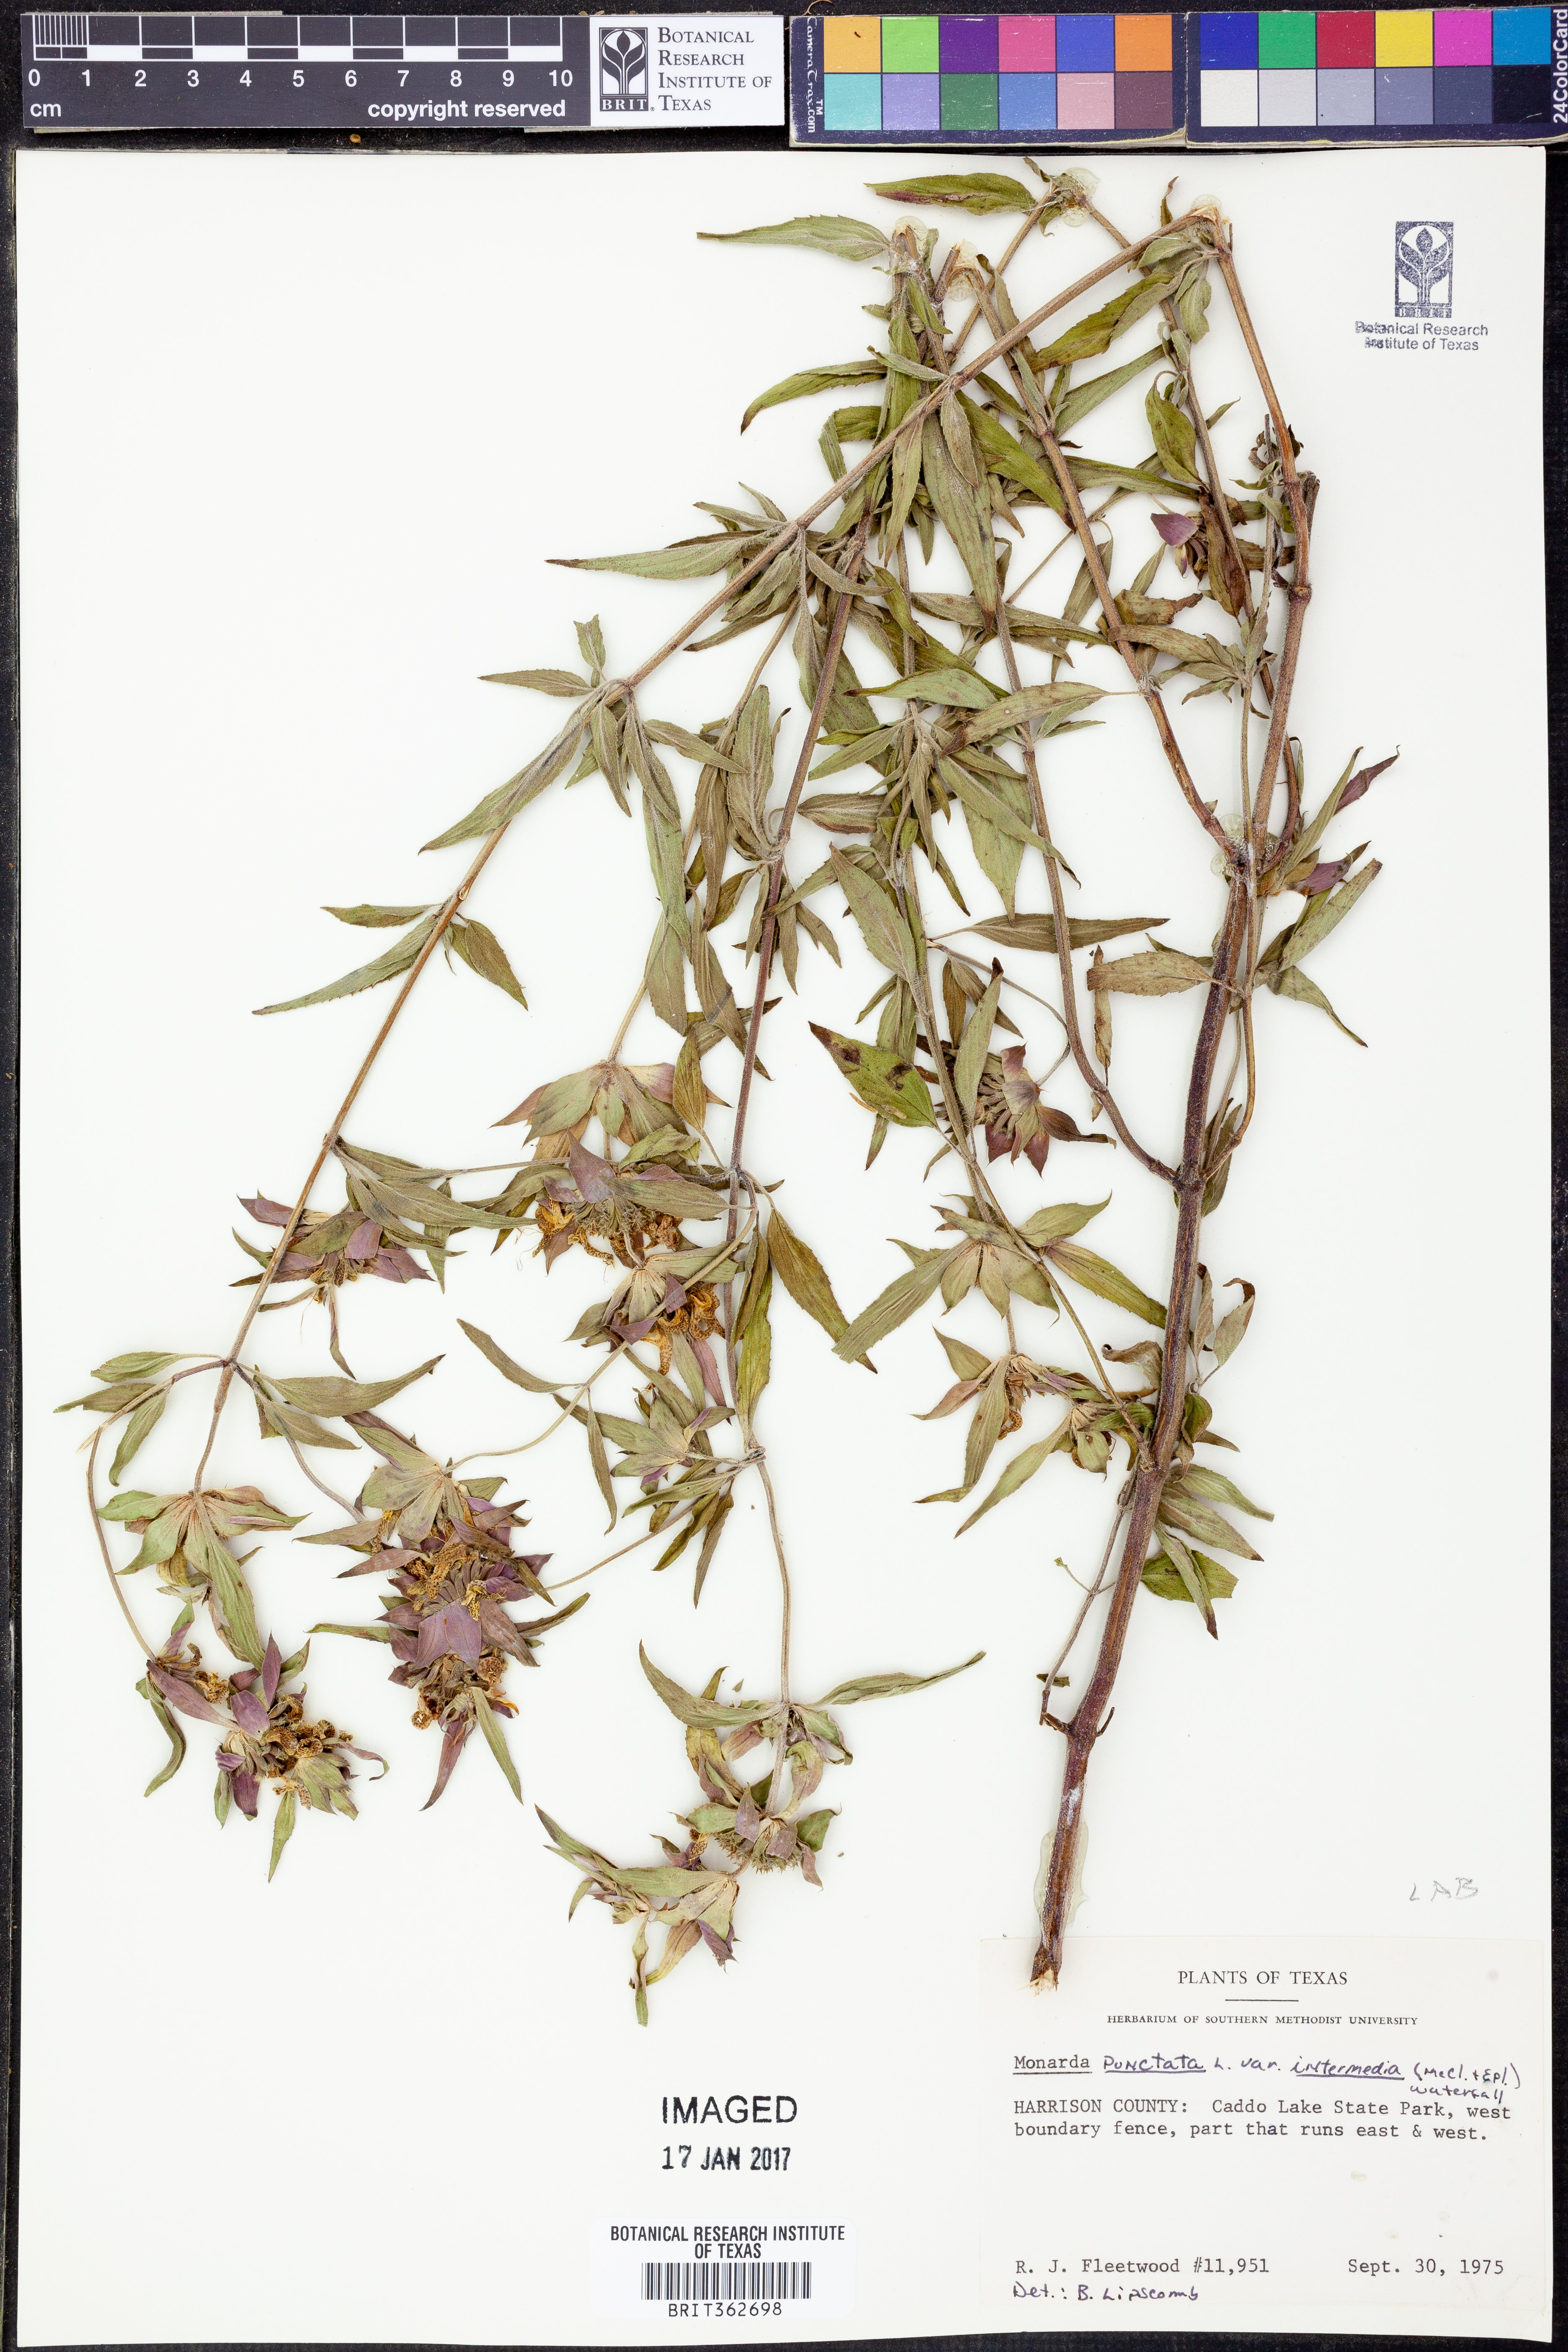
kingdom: Plantae
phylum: Tracheophyta
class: Magnoliopsida
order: Lamiales
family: Lamiaceae
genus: Monarda
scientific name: Monarda punctata
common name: Dotted monarda
